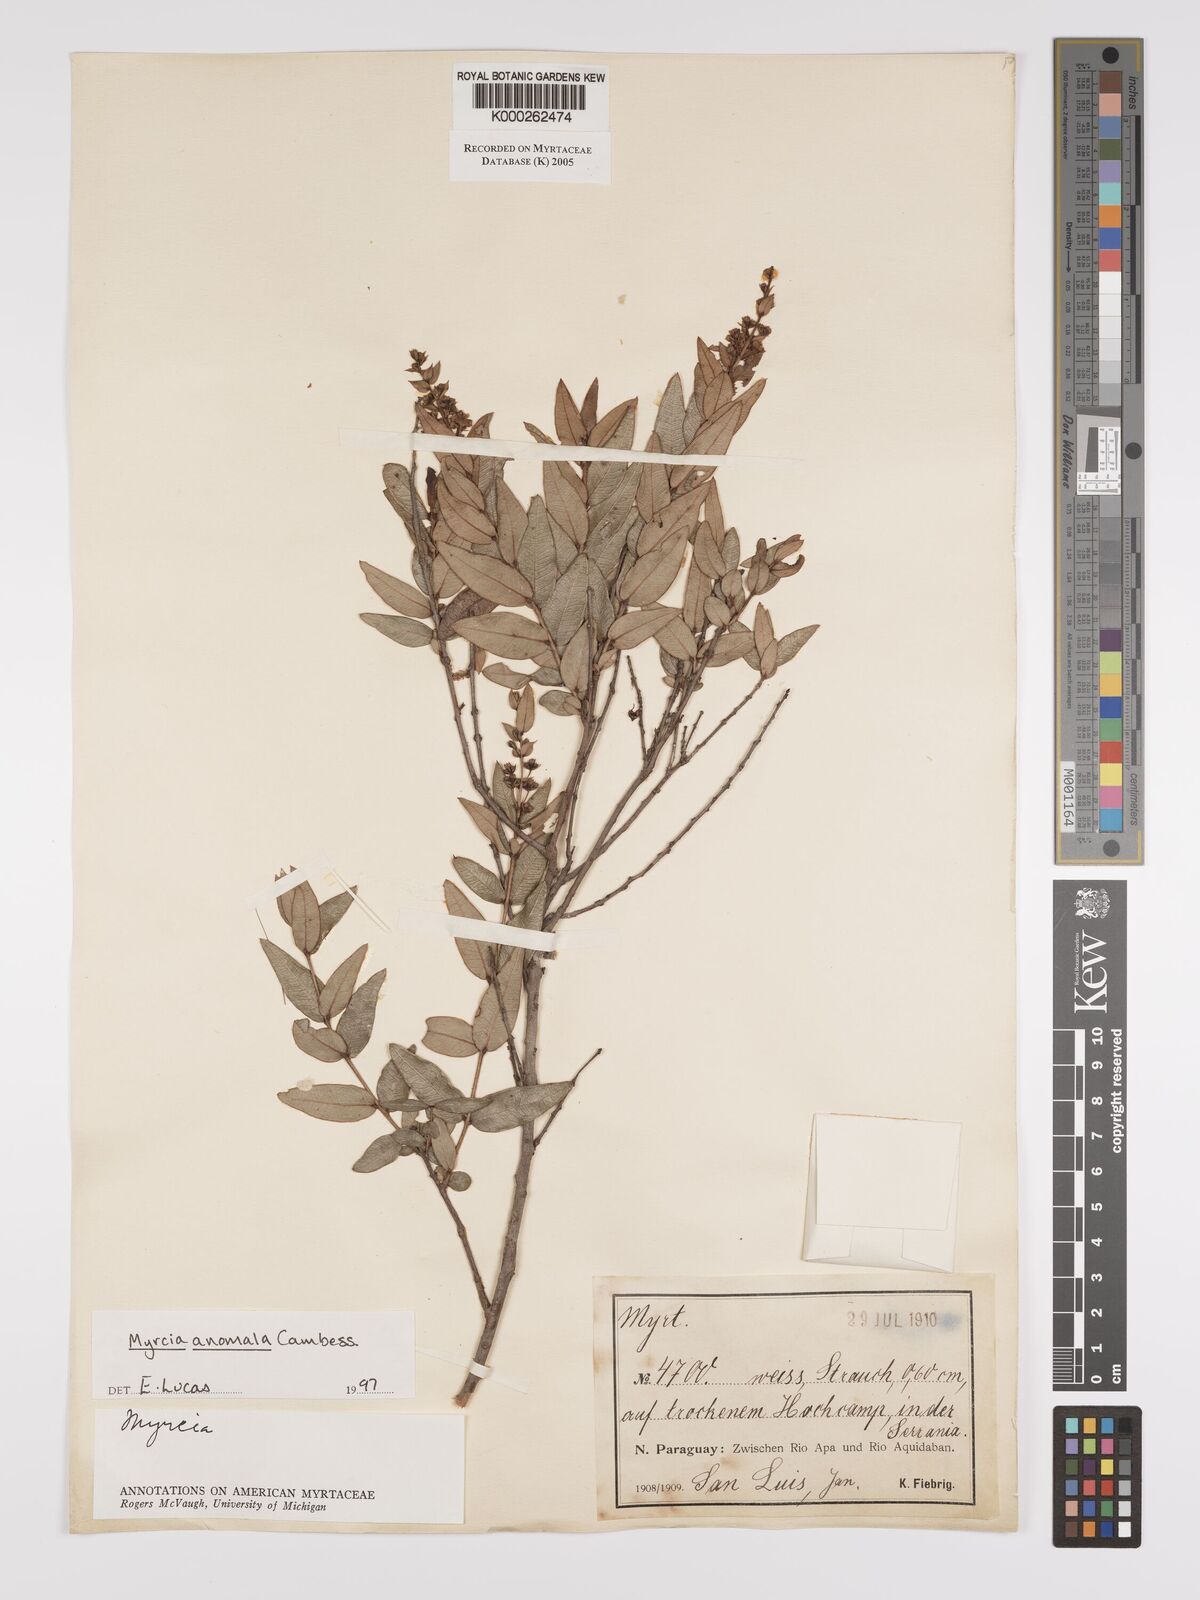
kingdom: Plantae
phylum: Tracheophyta
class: Magnoliopsida
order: Myrtales
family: Myrtaceae
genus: Myrcia
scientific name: Myrcia anomala
